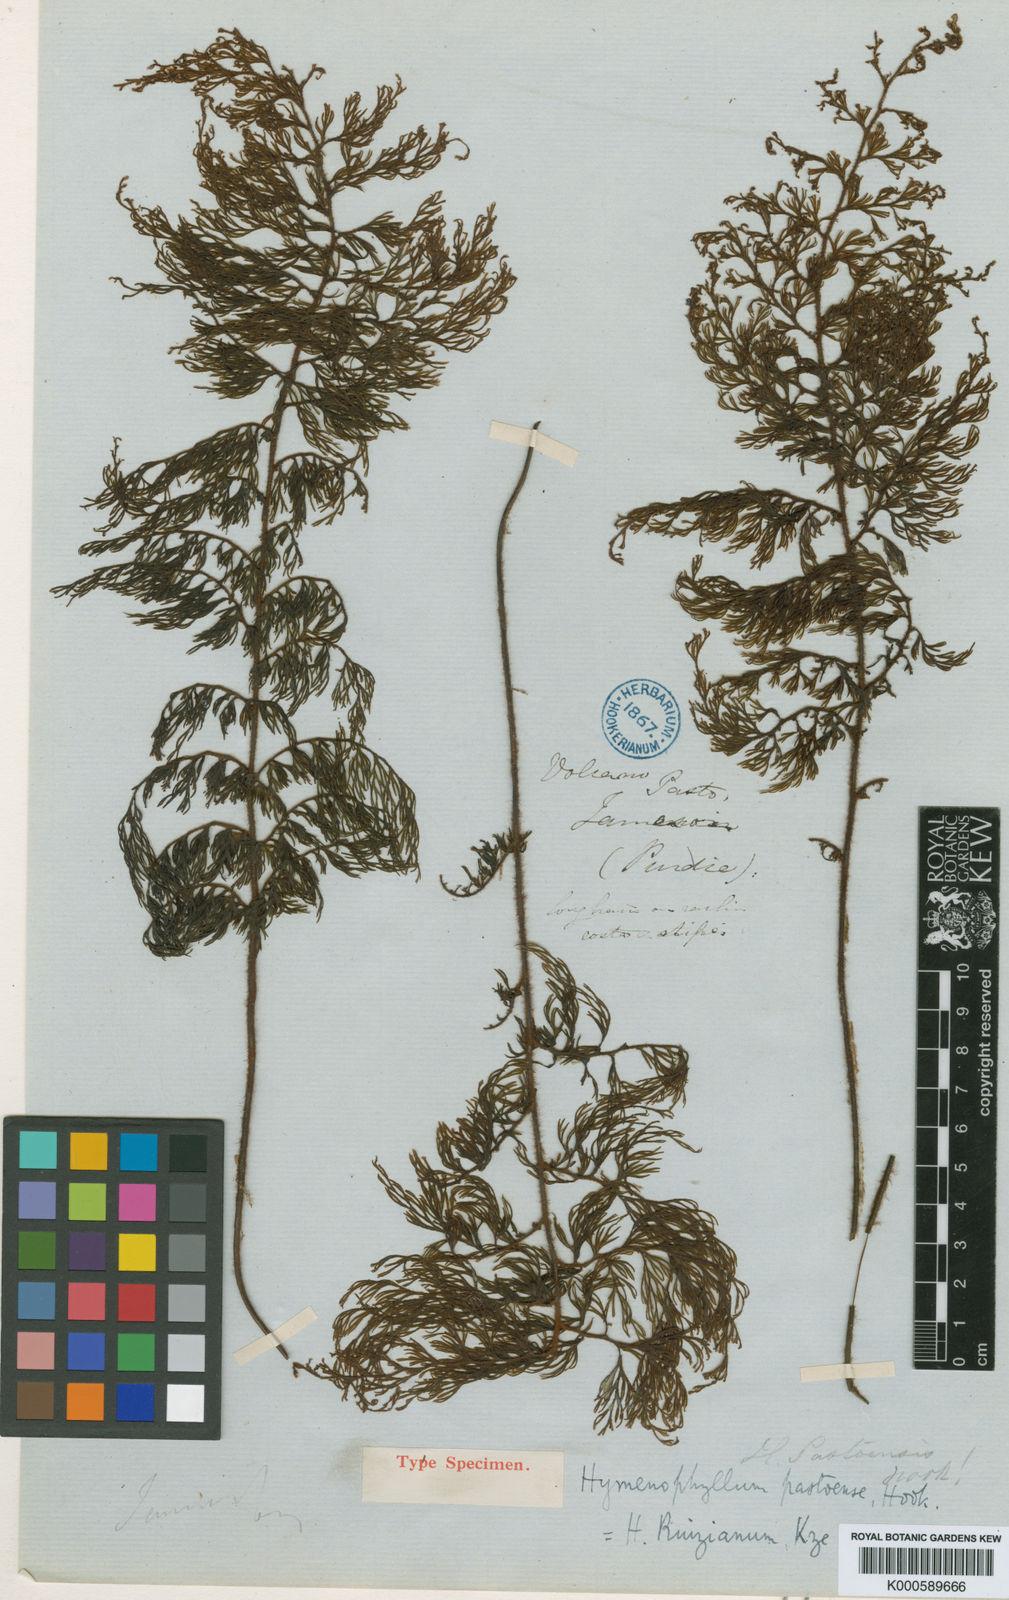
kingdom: Plantae
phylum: Tracheophyta
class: Polypodiopsida
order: Hymenophyllales
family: Hymenophyllaceae
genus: Hymenophyllum
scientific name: Hymenophyllum ruizianum
